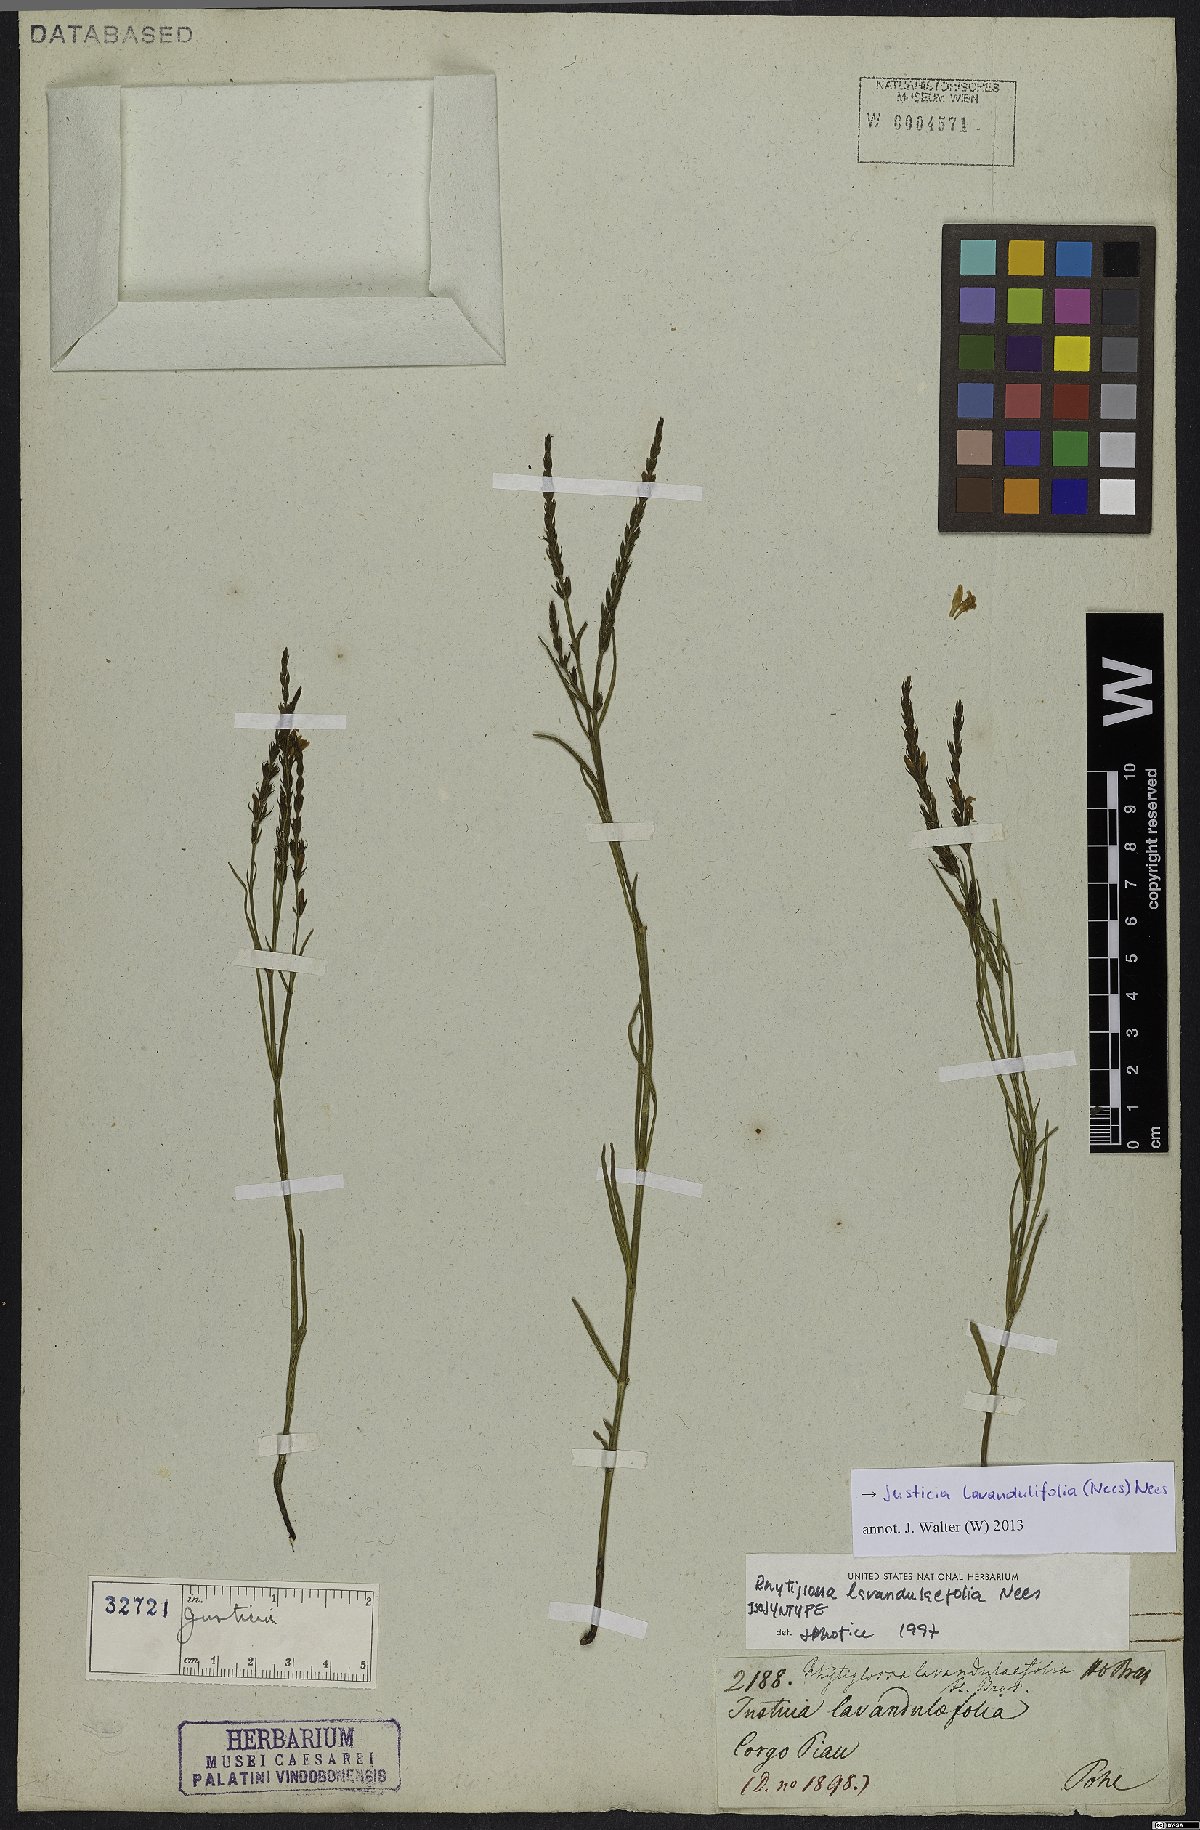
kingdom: Plantae
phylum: Tracheophyta
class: Magnoliopsida
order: Lamiales
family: Acanthaceae
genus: Justicia
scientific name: Justicia lavandulifolia
